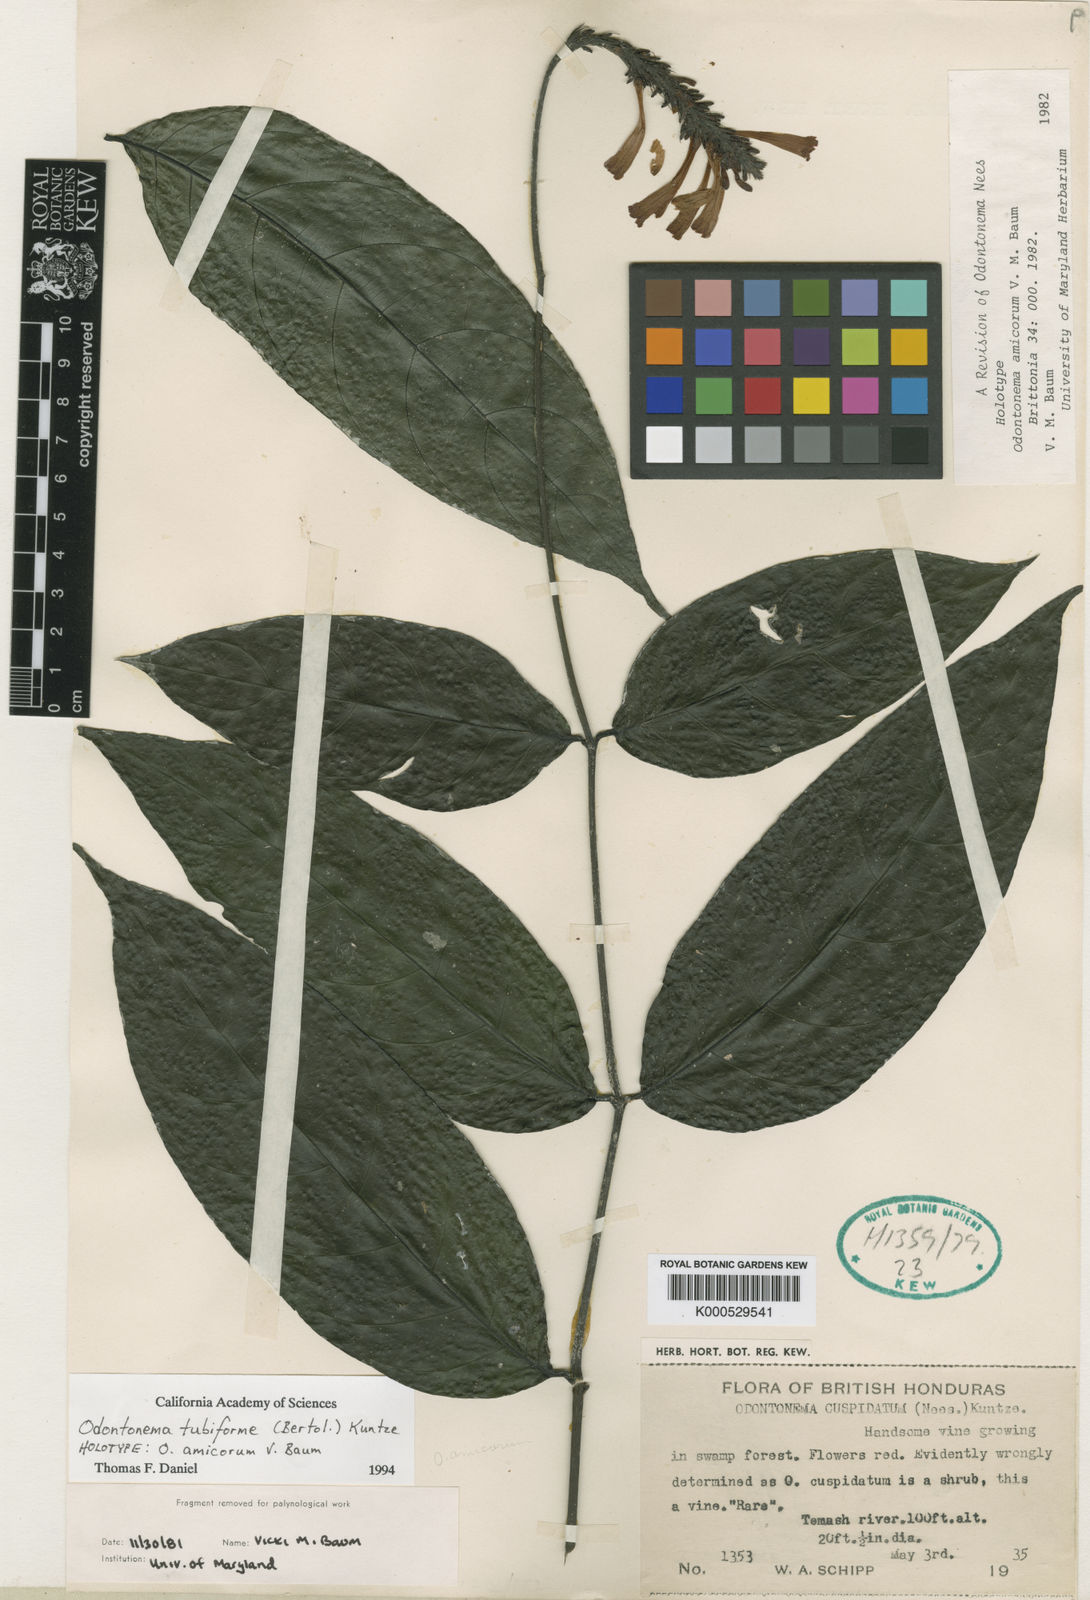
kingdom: Plantae
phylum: Tracheophyta
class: Magnoliopsida
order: Lamiales
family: Acanthaceae
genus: Odontonema
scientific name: Odontonema tubaeforme
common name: Firespike
